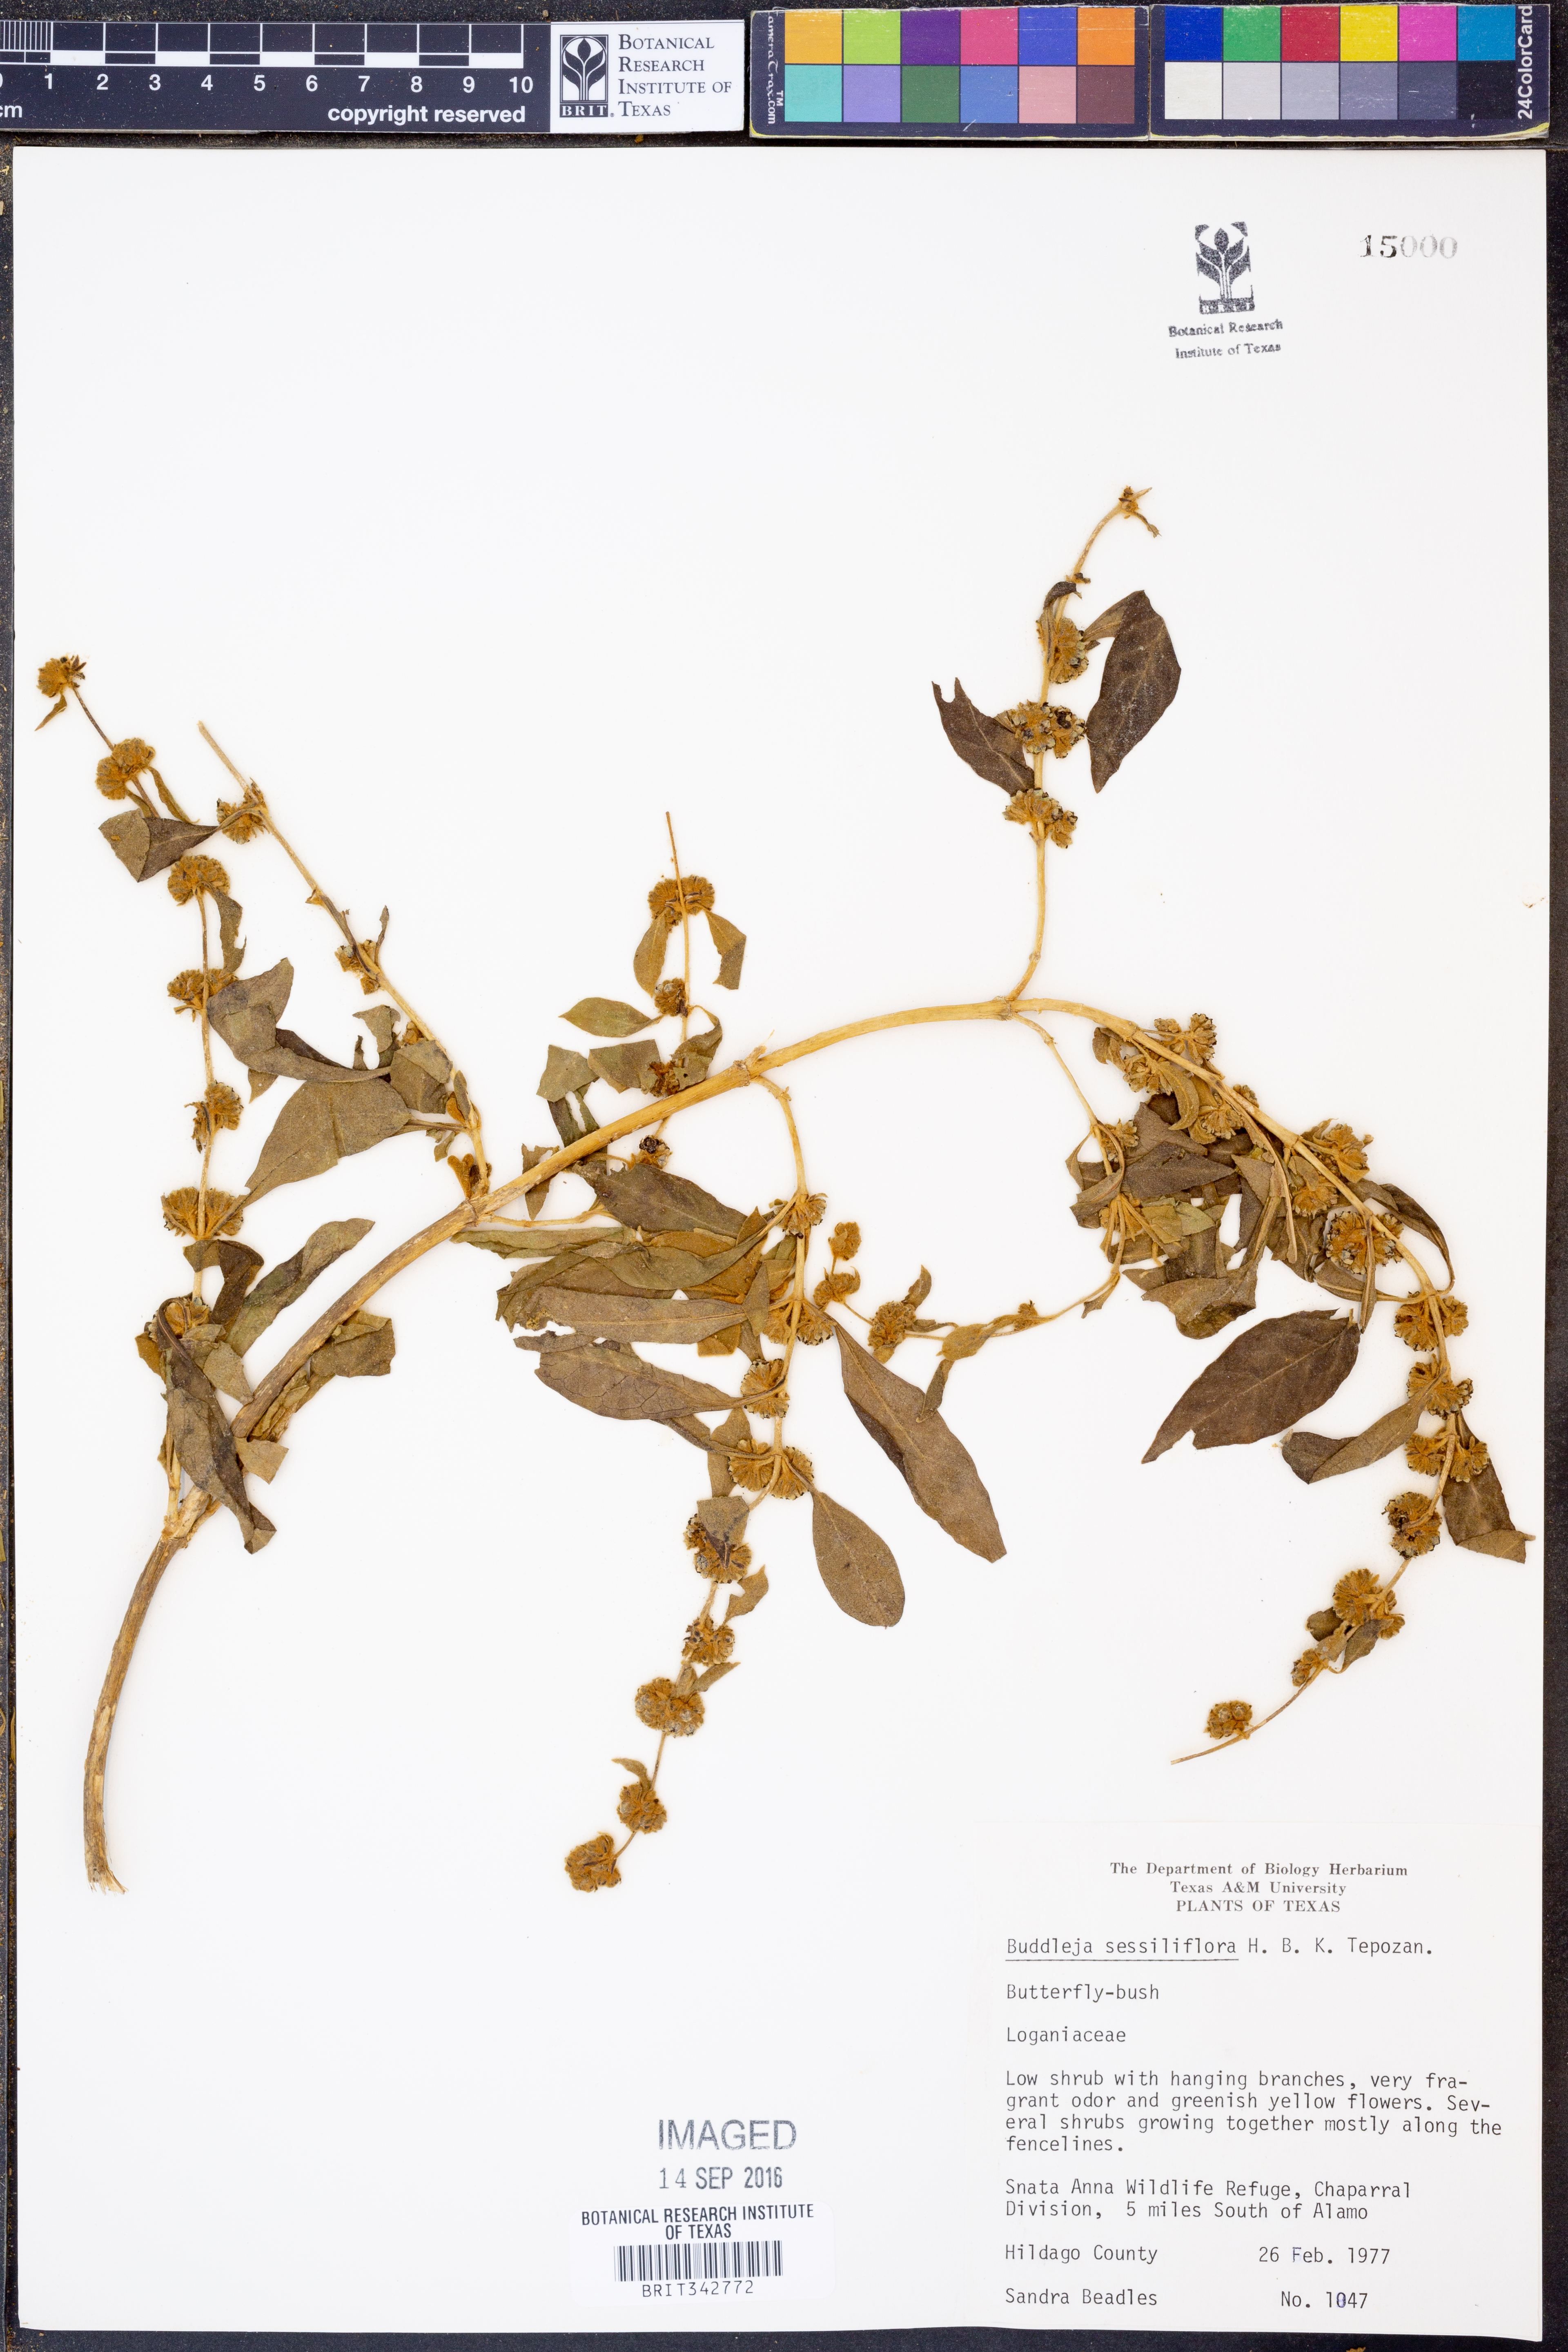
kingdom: Plantae
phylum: Tracheophyta
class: Magnoliopsida
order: Lamiales
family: Scrophulariaceae
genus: Buddleja
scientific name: Buddleja sessiliflora
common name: Rio grande butterfly-bush
